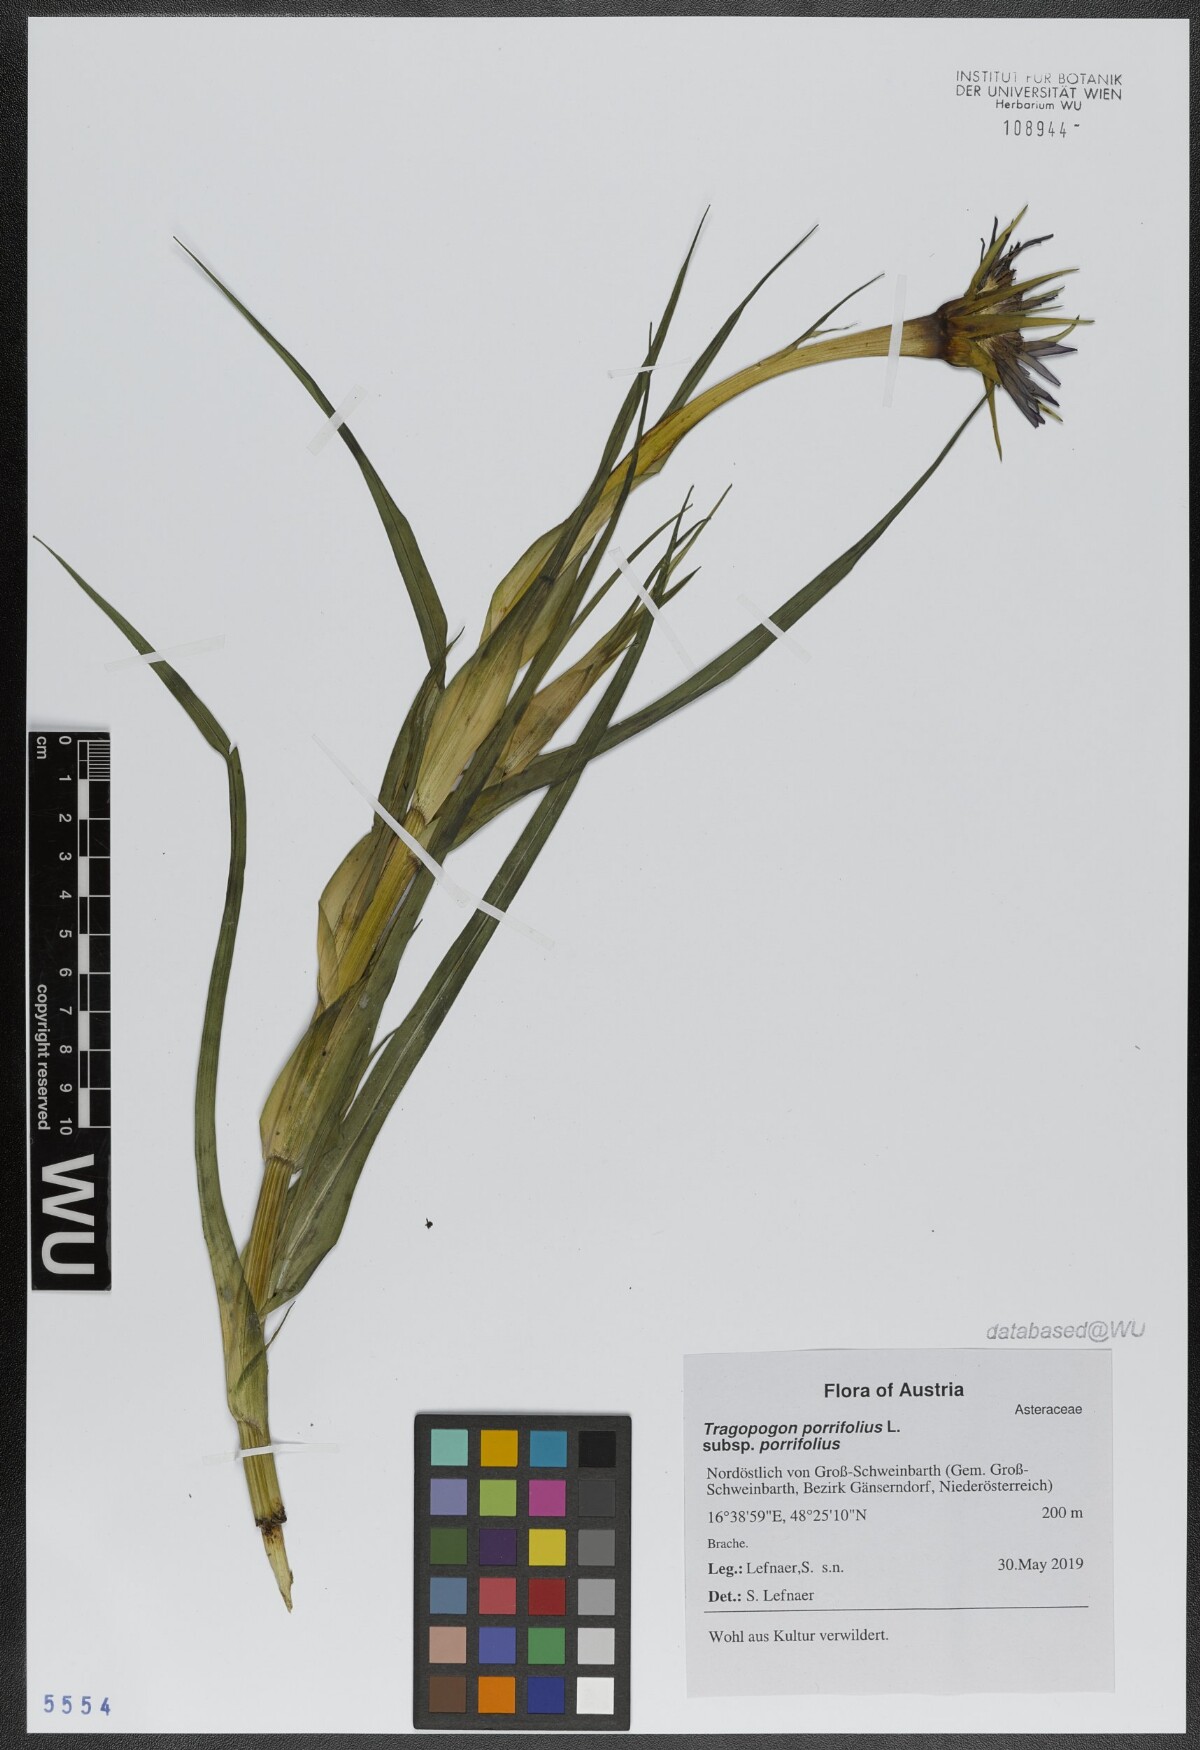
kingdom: Plantae
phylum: Tracheophyta
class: Magnoliopsida
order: Asterales
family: Asteraceae
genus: Tragopogon
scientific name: Tragopogon porrifolius
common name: Salsify
